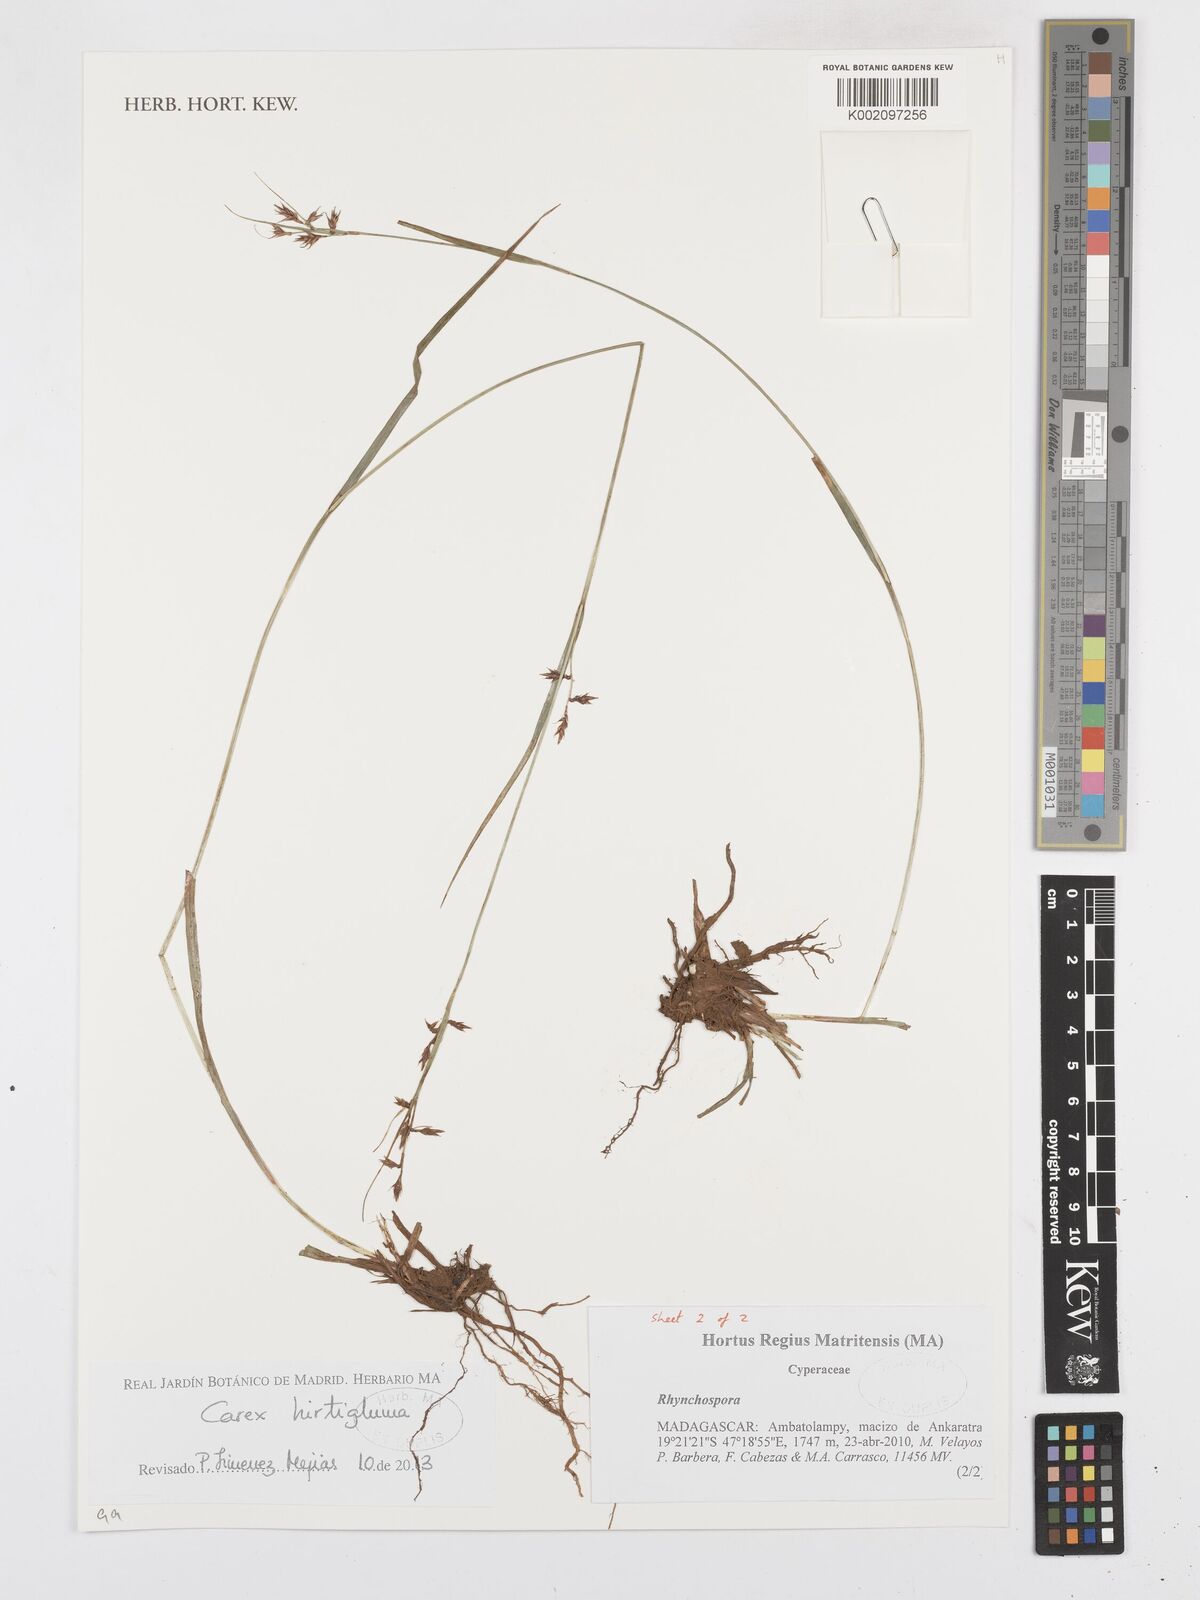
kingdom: Plantae
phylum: Tracheophyta
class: Liliopsida
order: Poales
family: Cyperaceae
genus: Carex
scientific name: Carex hirtigluma
